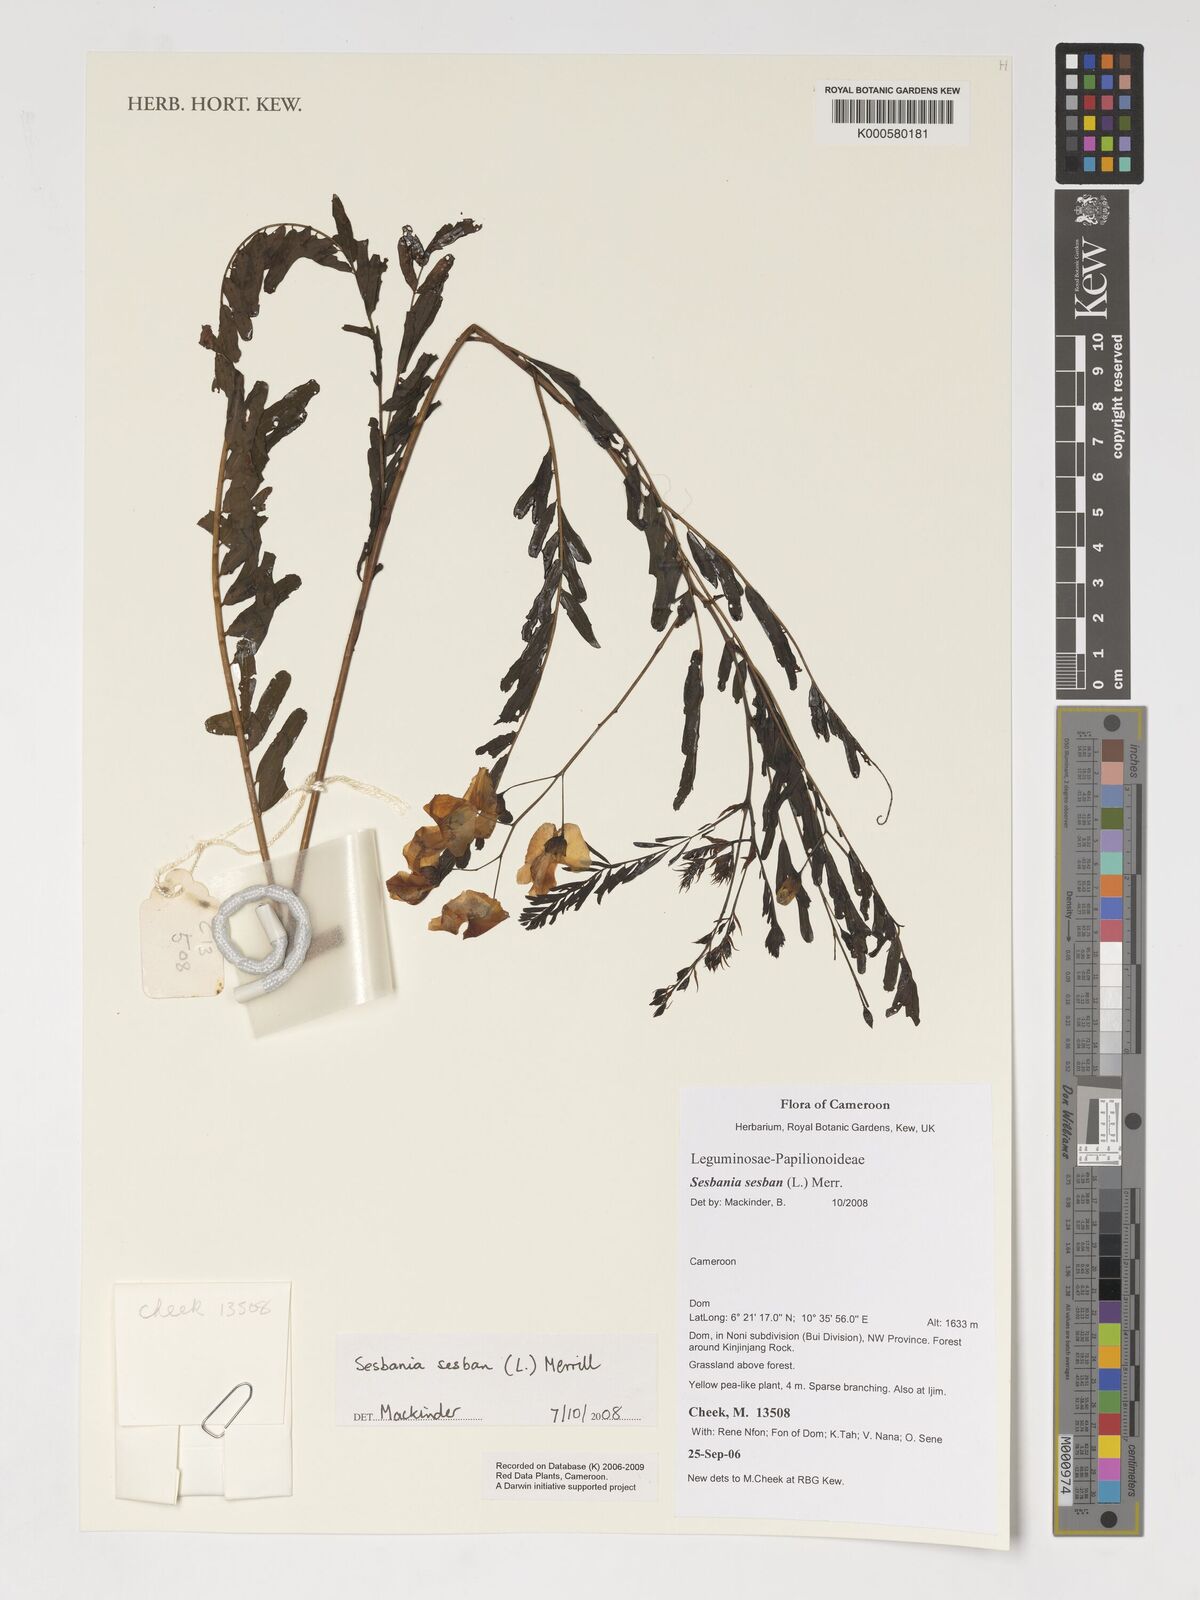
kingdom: Plantae
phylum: Tracheophyta
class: Magnoliopsida
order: Fabales
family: Fabaceae
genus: Sesbania
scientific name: Sesbania sesban
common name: Egyptian sesban
